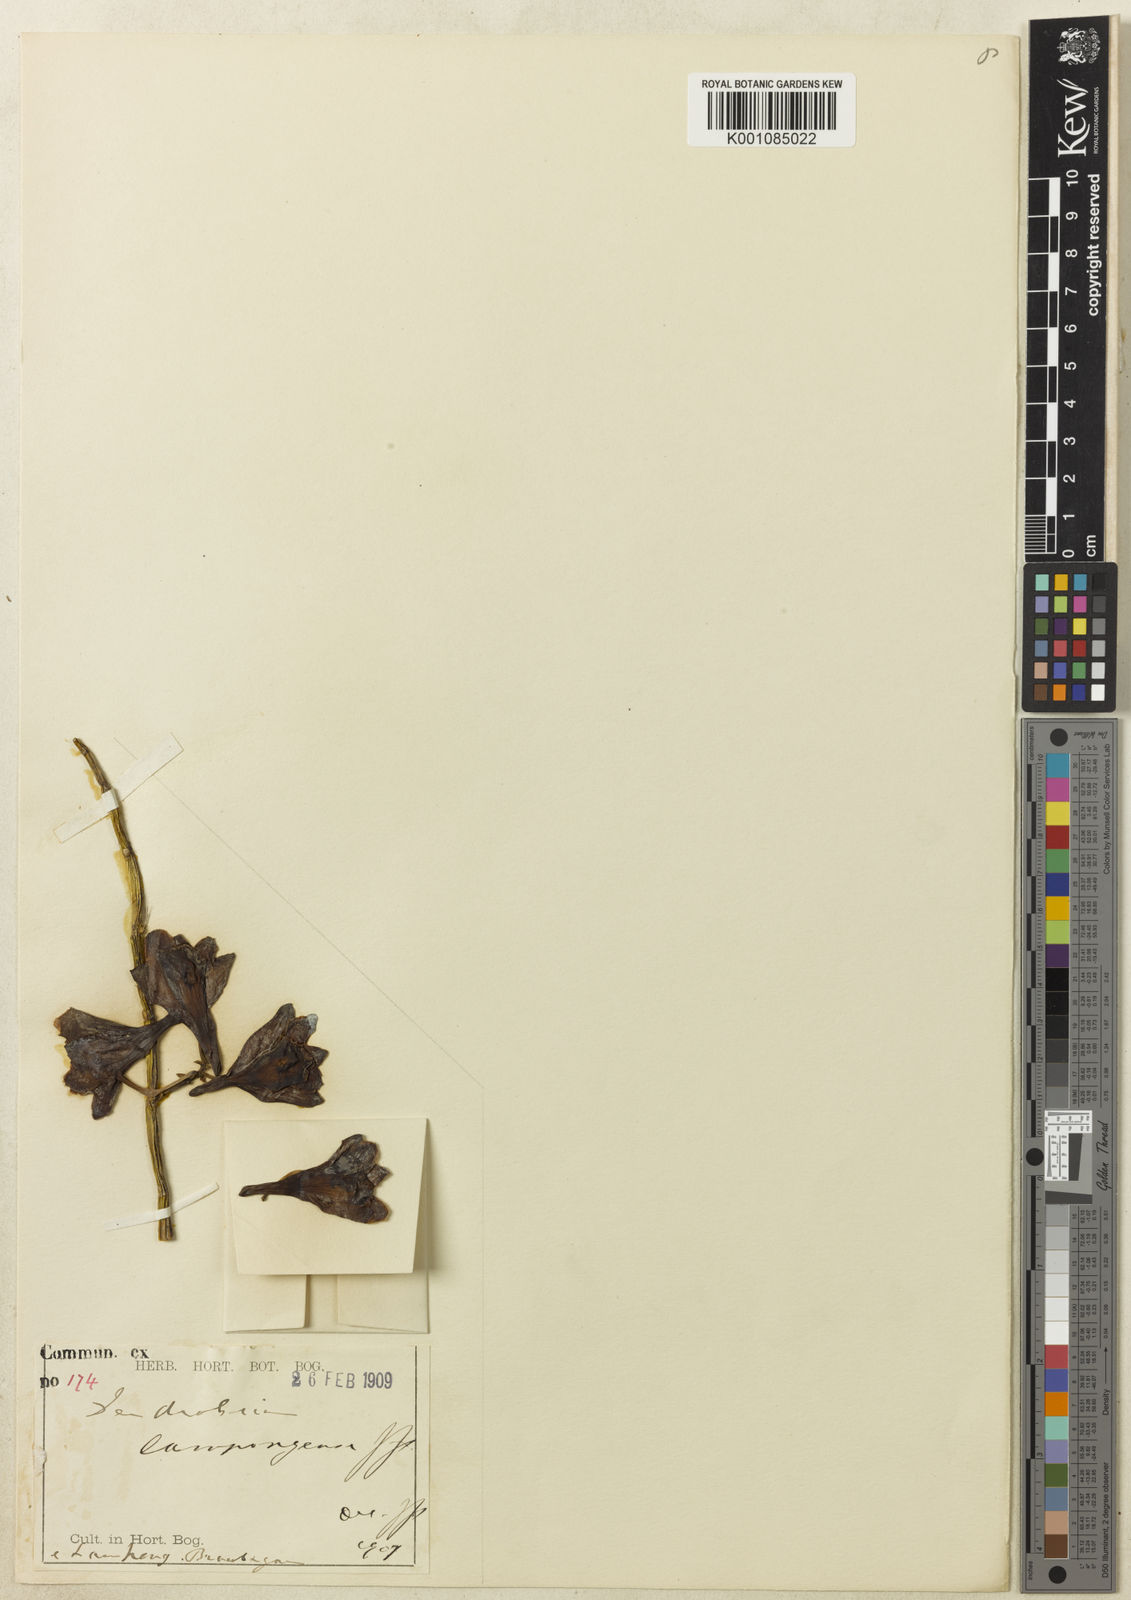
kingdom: Plantae
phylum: Tracheophyta
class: Liliopsida
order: Asparagales
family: Orchidaceae
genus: Dendrobium
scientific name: Dendrobium lampongense
